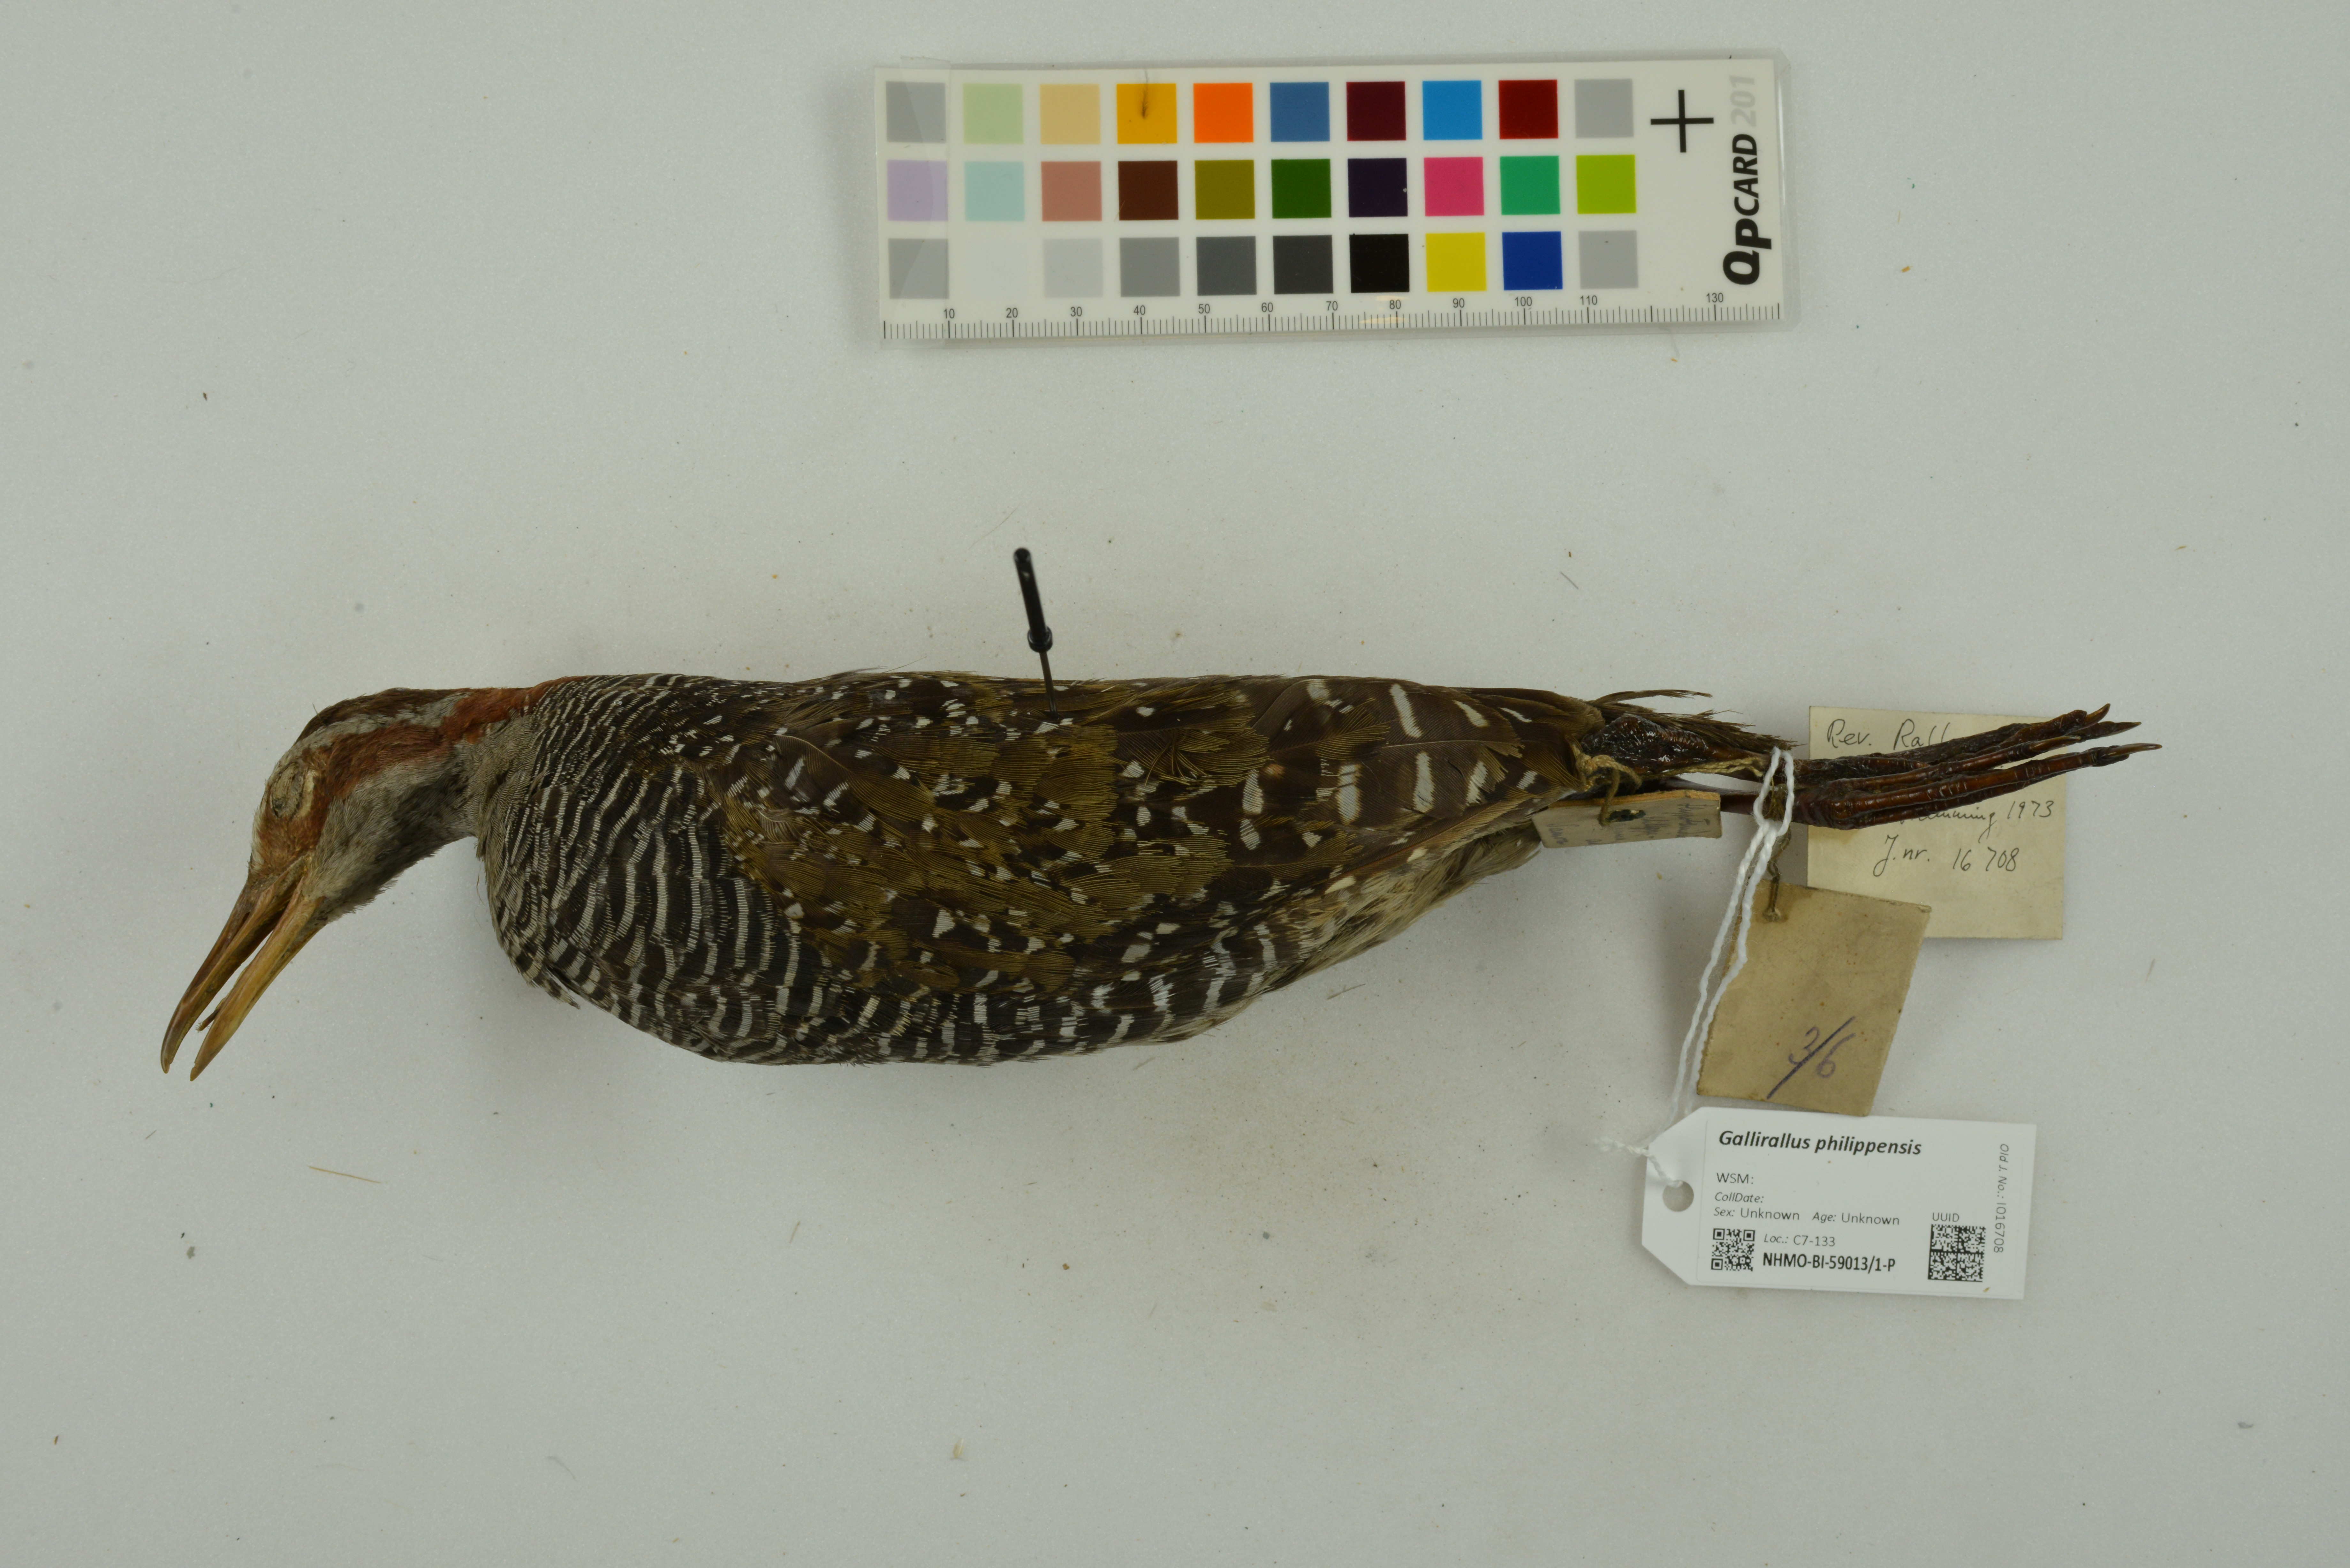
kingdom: Animalia
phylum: Chordata
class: Aves
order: Gruiformes
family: Rallidae
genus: Gallirallus
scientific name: Gallirallus philippensis
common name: Buff-banded rail
